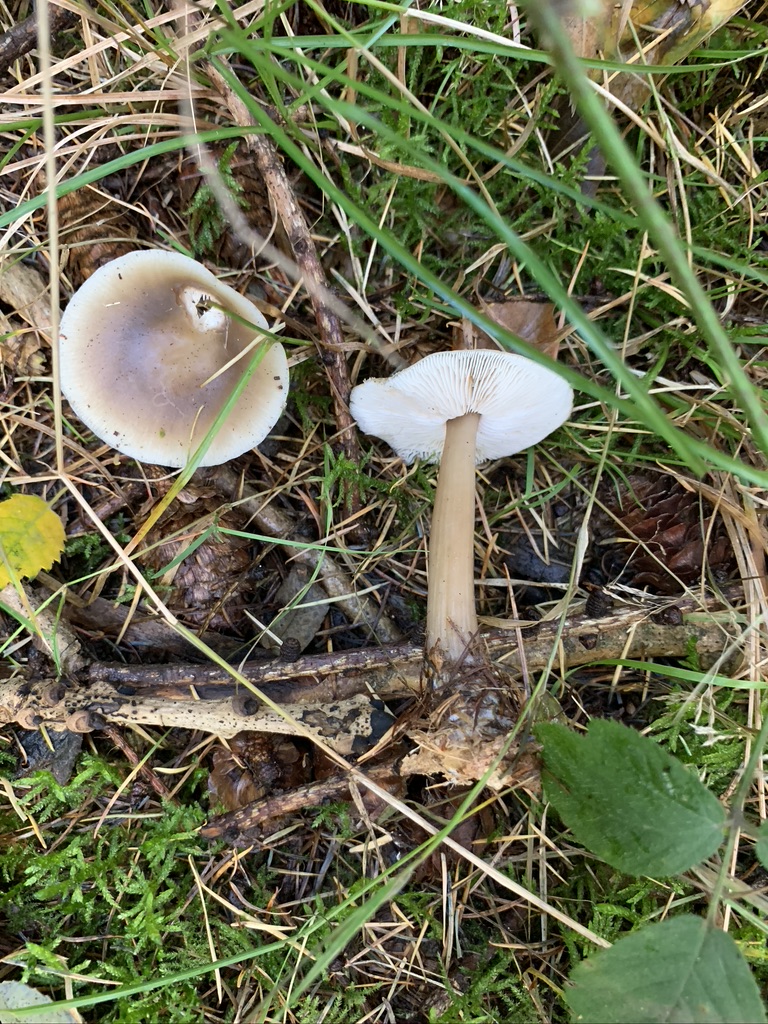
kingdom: Fungi
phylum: Basidiomycota
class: Agaricomycetes
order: Agaricales
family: Omphalotaceae
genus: Rhodocollybia
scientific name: Rhodocollybia asema
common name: horngrå fladhat
